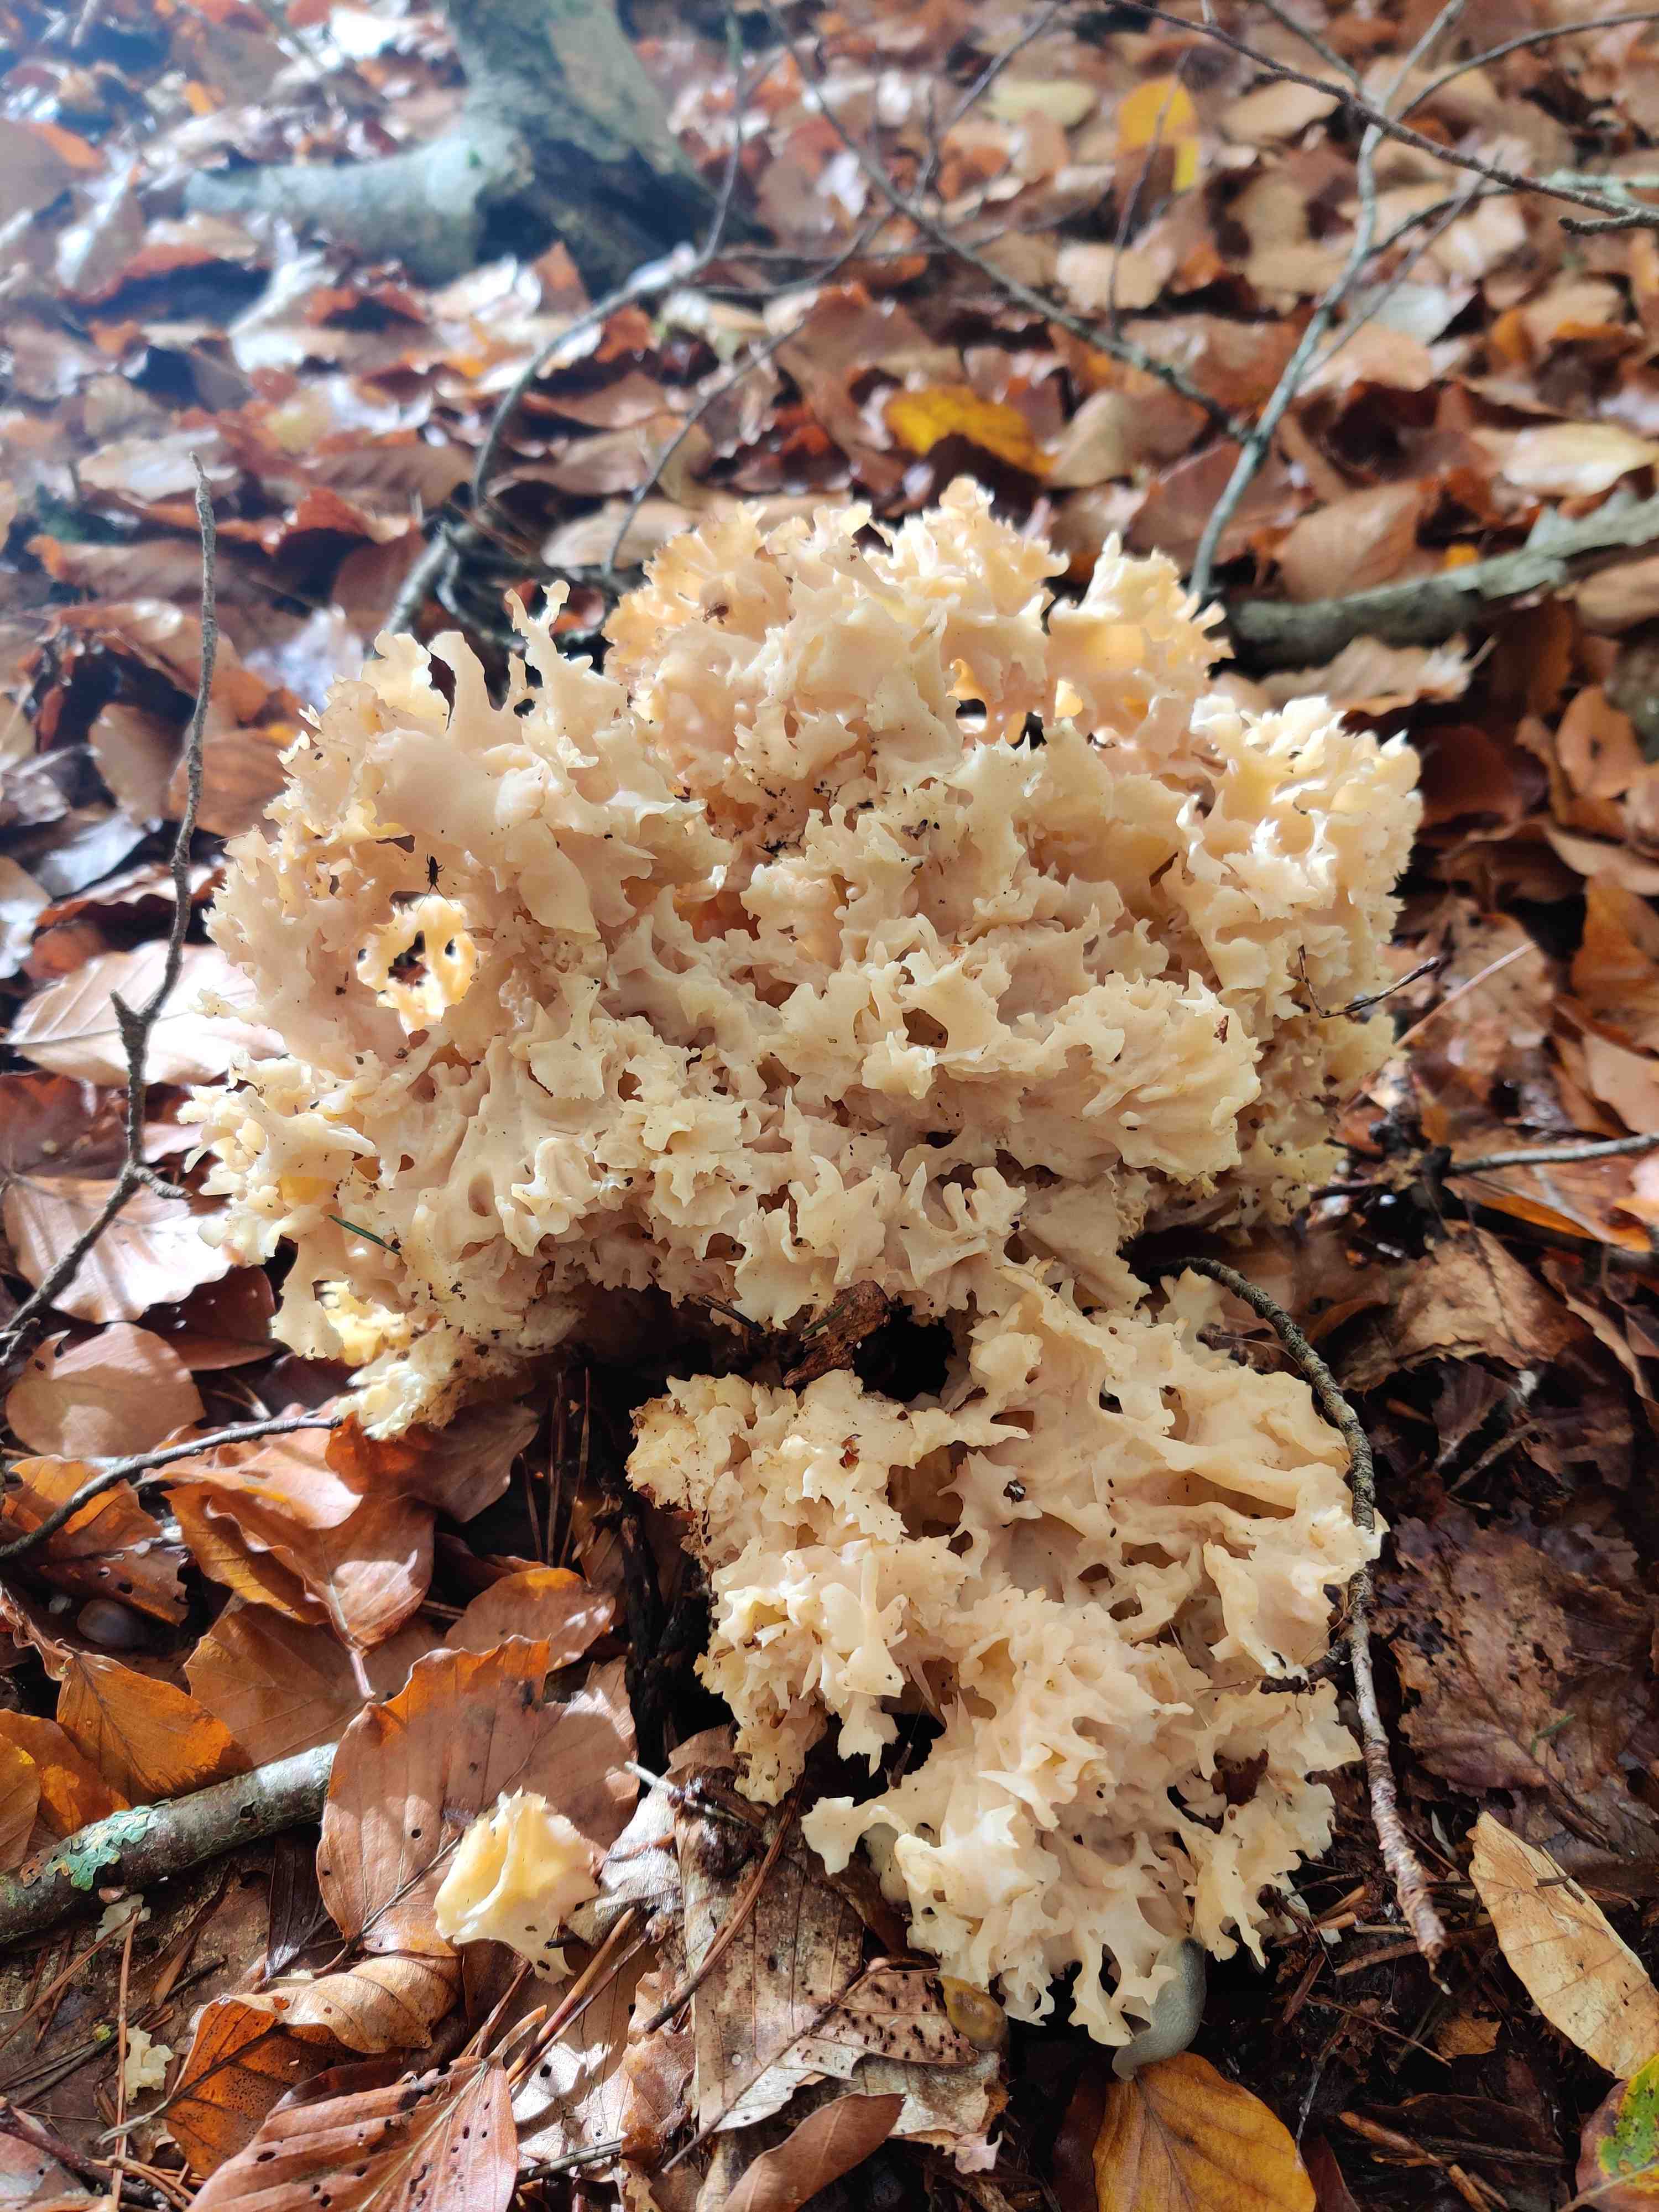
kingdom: Fungi
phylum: Basidiomycota
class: Agaricomycetes
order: Polyporales
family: Sparassidaceae
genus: Sparassis
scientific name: Sparassis crispa
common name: kruset blomkålssvamp
